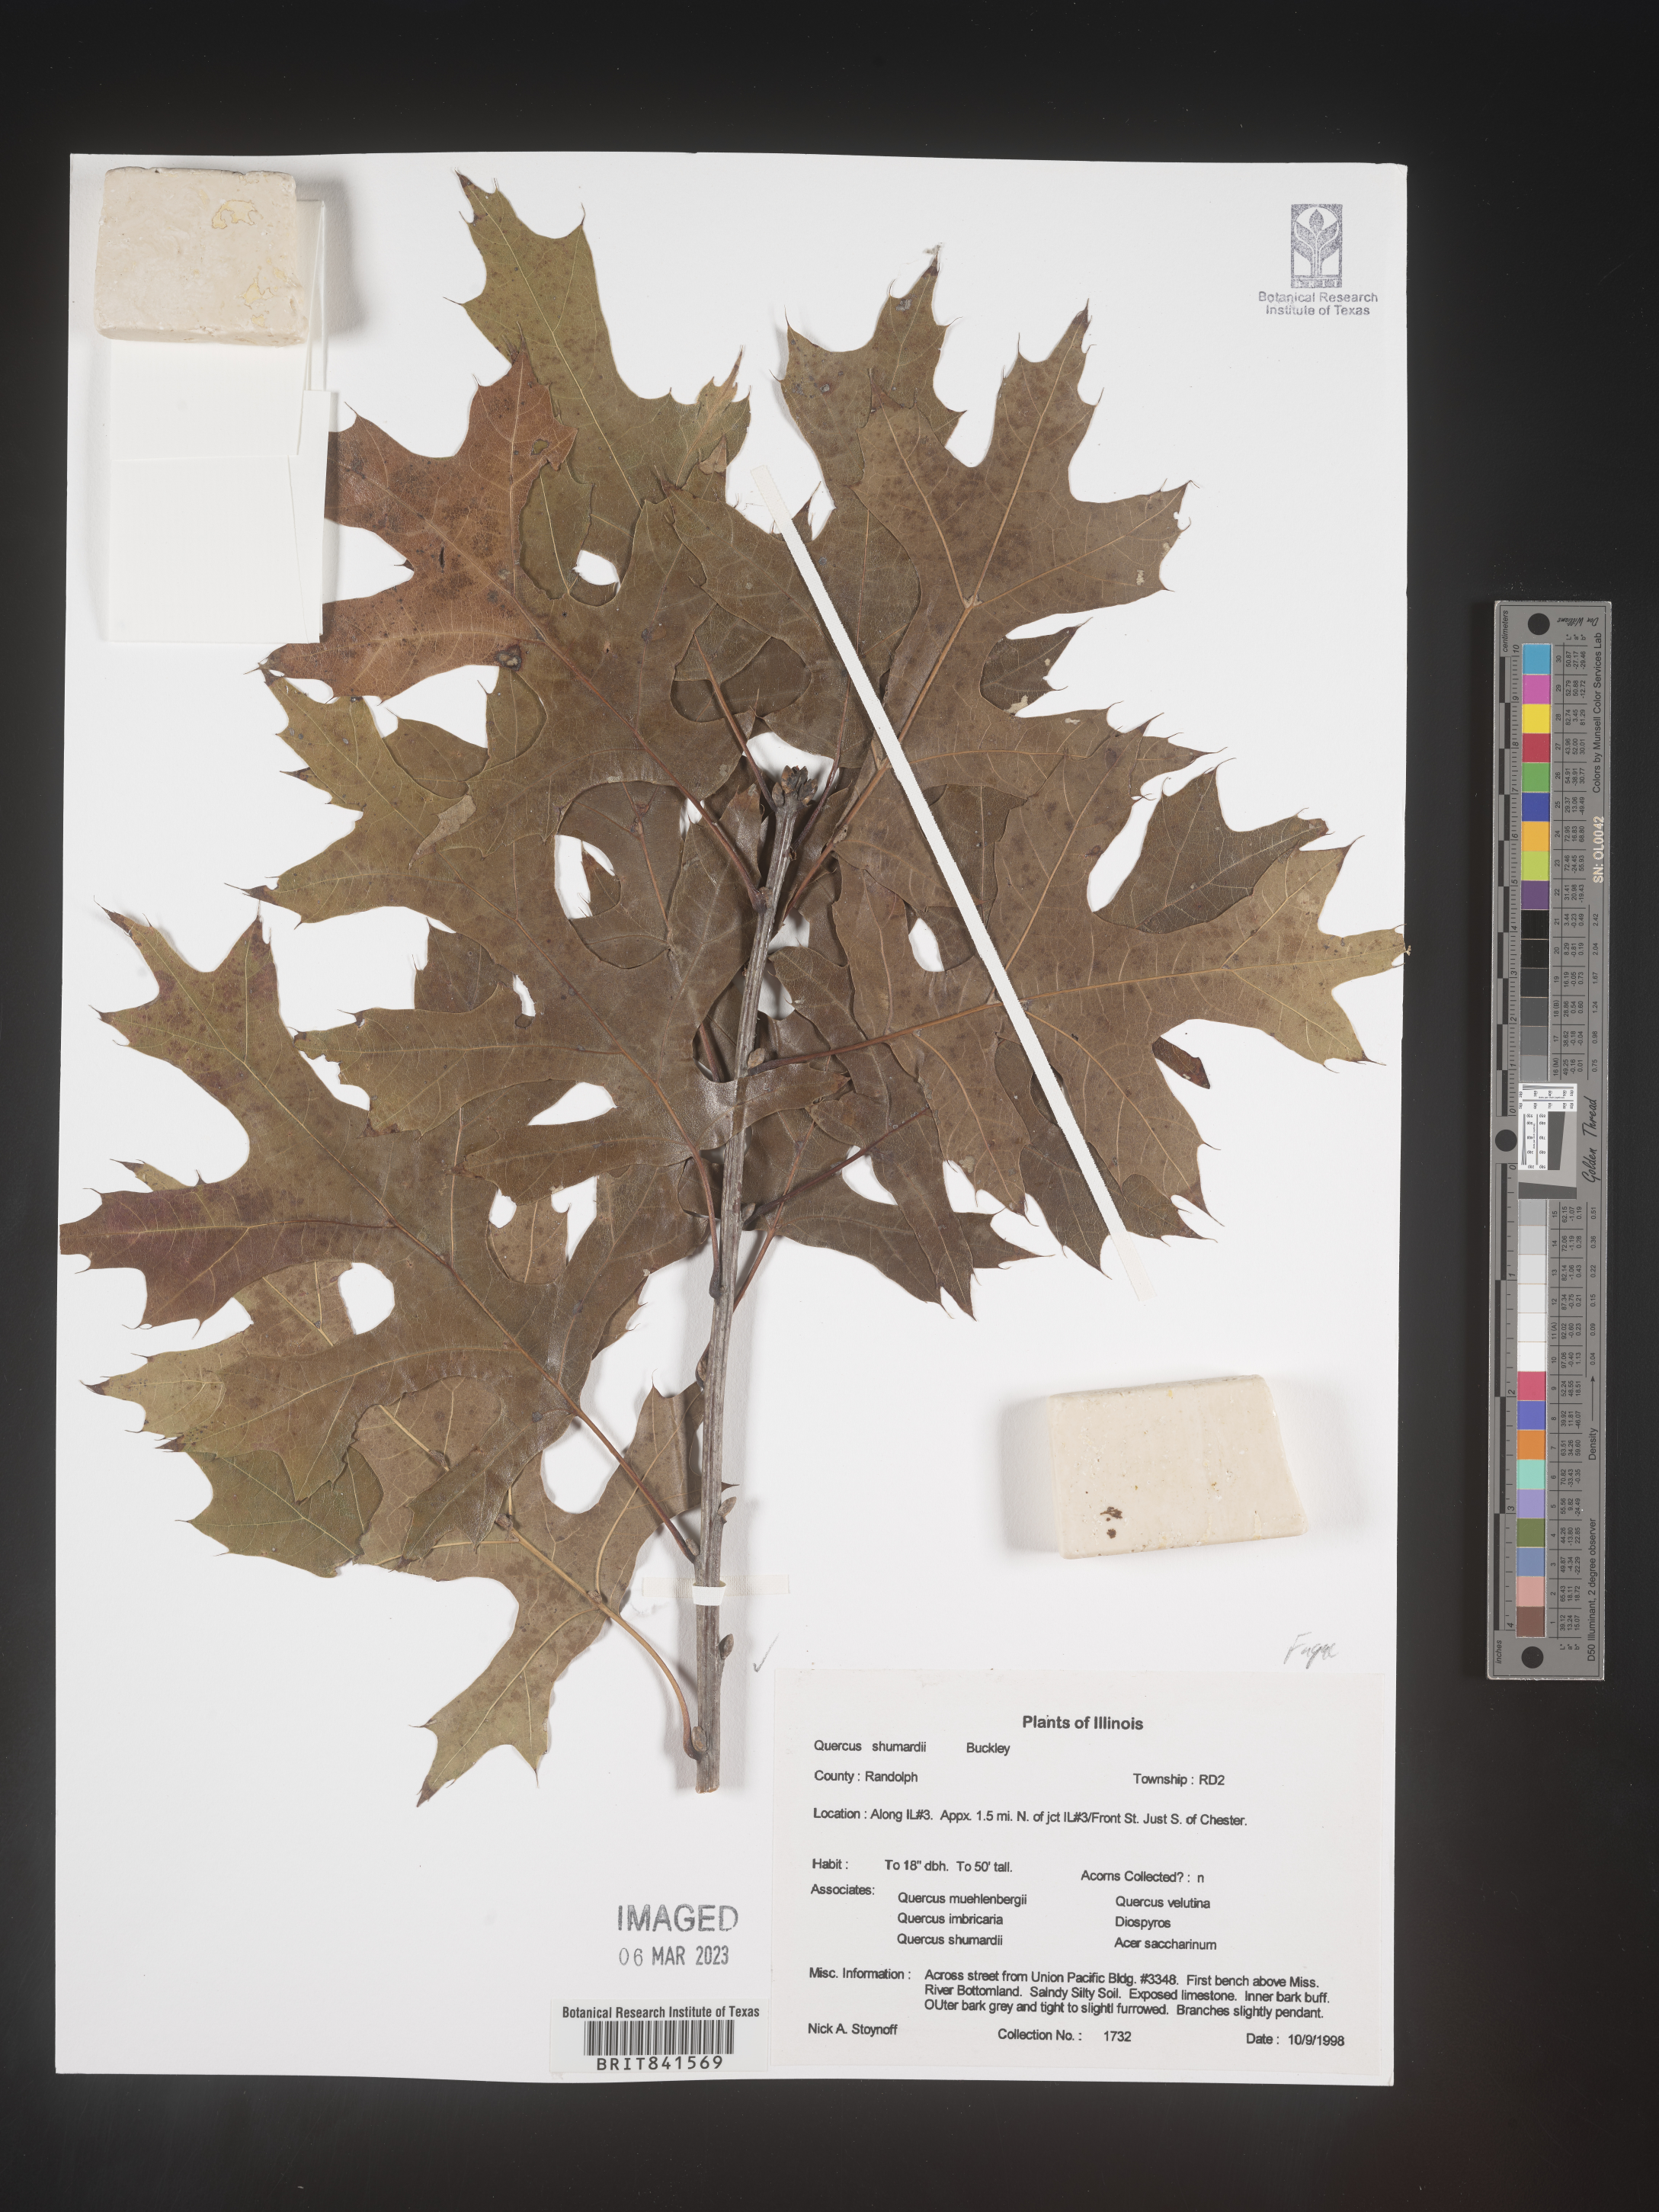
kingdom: Plantae
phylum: Tracheophyta
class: Magnoliopsida
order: Fagales
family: Fagaceae
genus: Quercus
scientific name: Quercus shumardii
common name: Shumard oak
